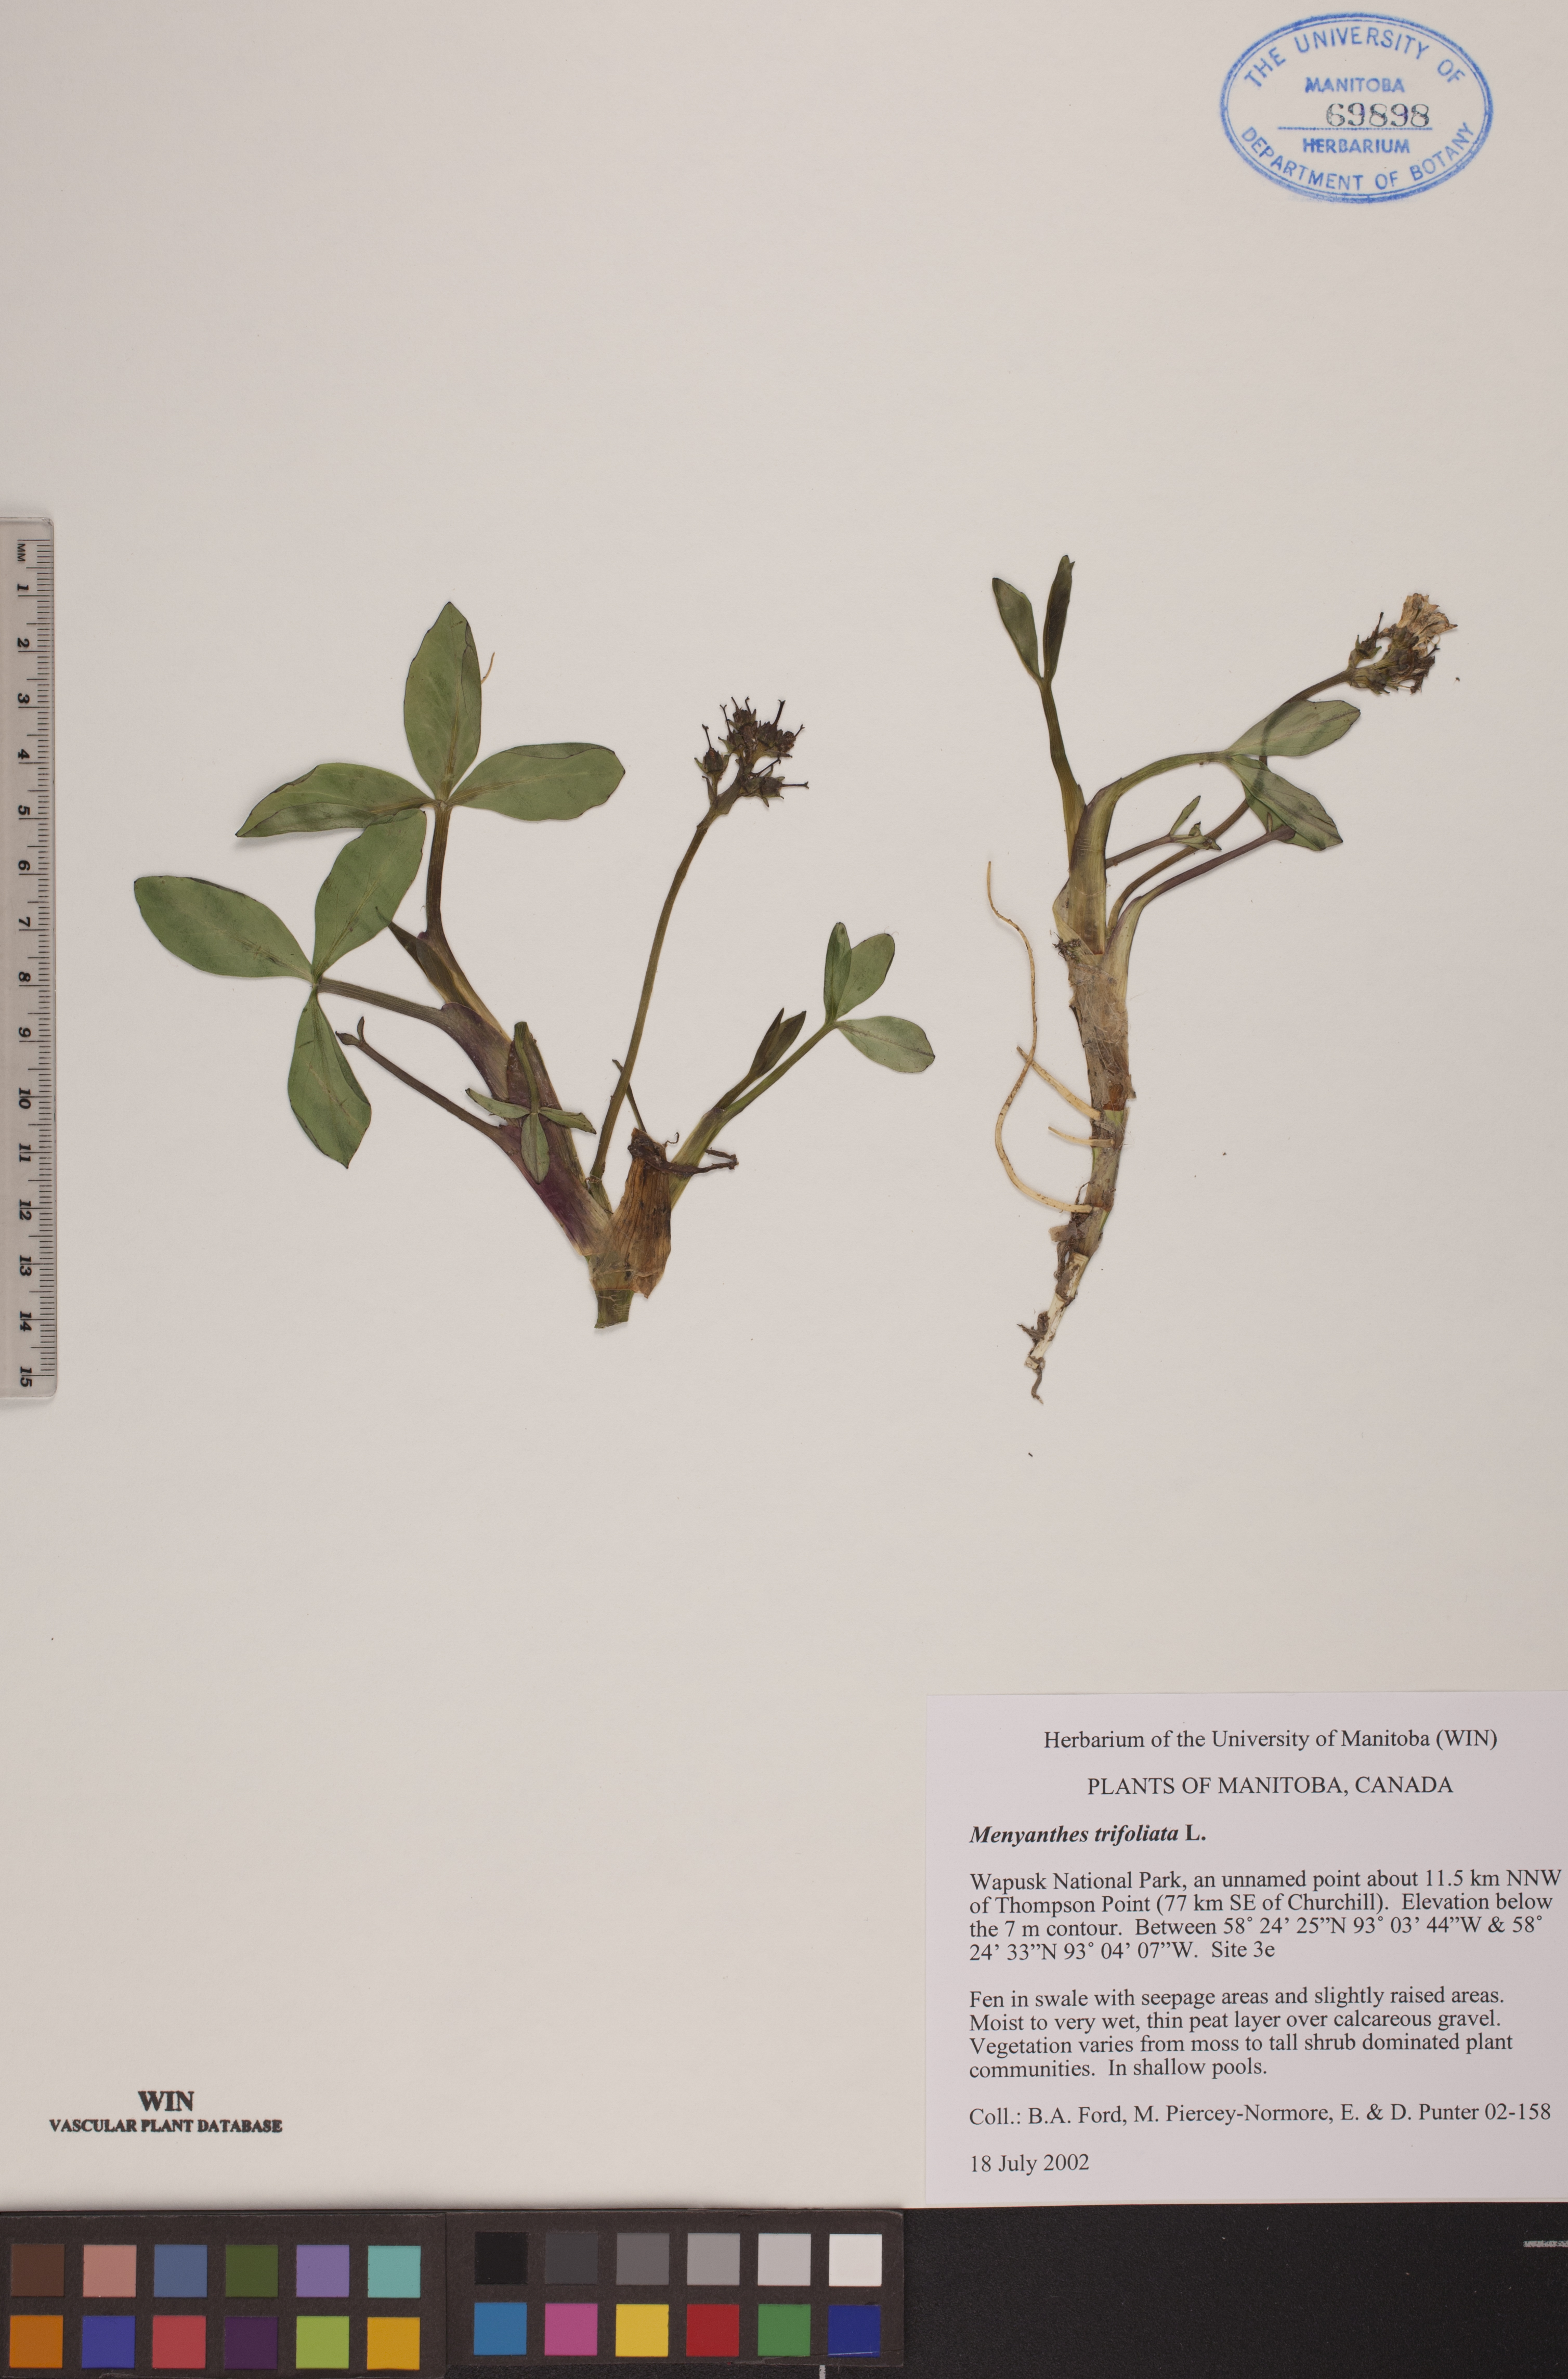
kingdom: Plantae
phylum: Tracheophyta
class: Magnoliopsida
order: Asterales
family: Menyanthaceae
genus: Menyanthes
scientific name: Menyanthes trifoliata
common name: Bogbean
